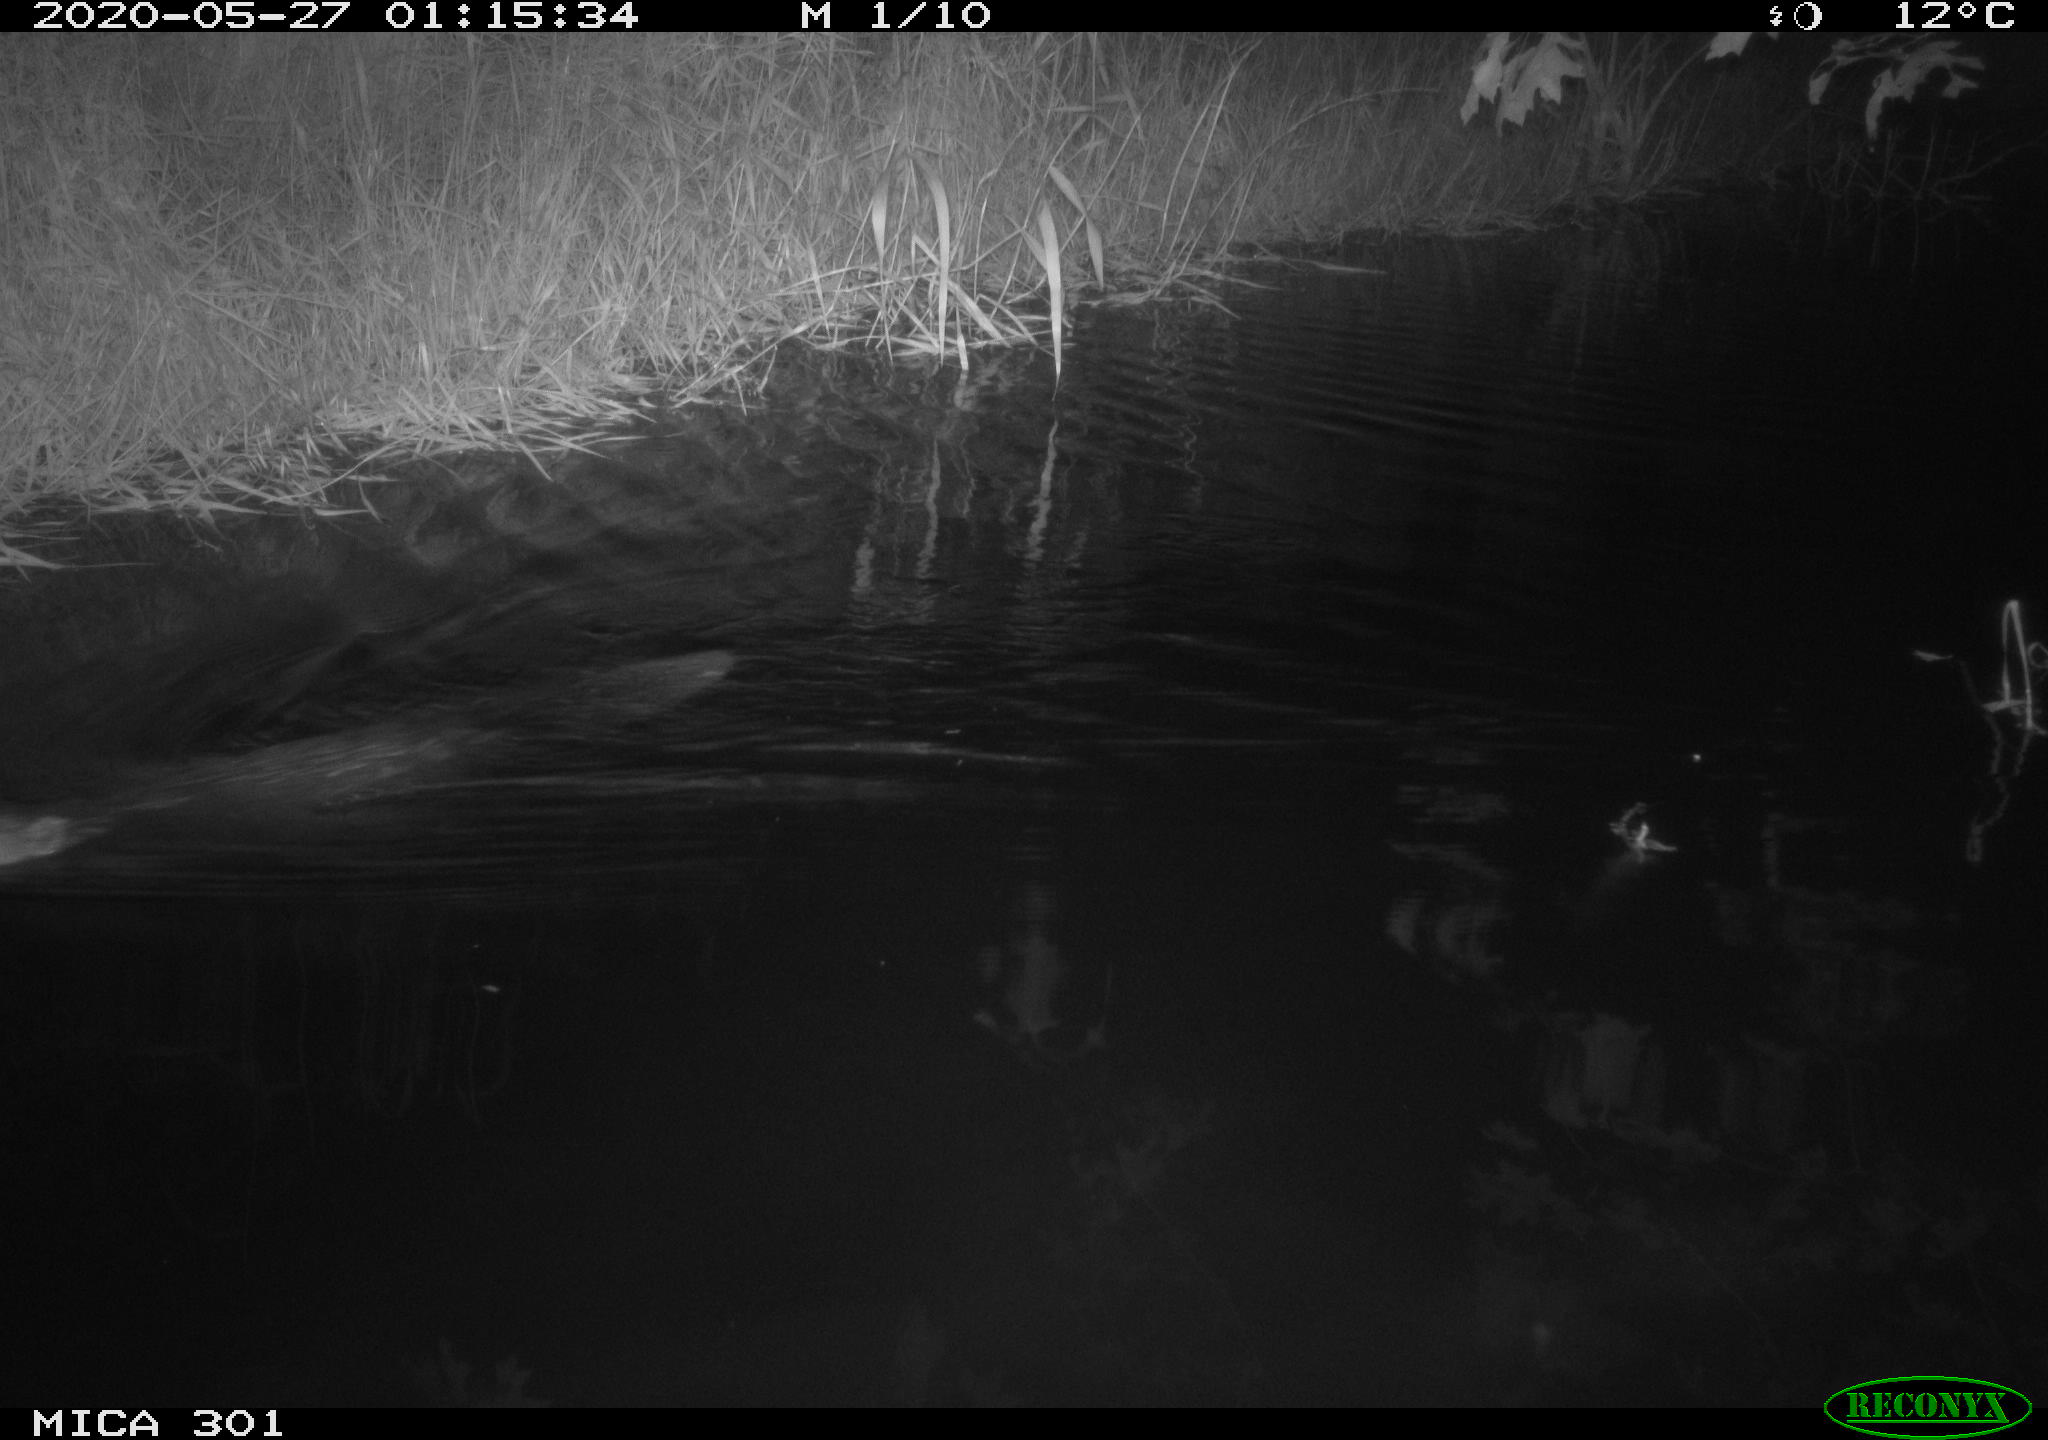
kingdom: Animalia
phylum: Chordata
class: Mammalia
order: Rodentia
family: Castoridae
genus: Castor
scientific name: Castor fiber
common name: Eurasian beaver
